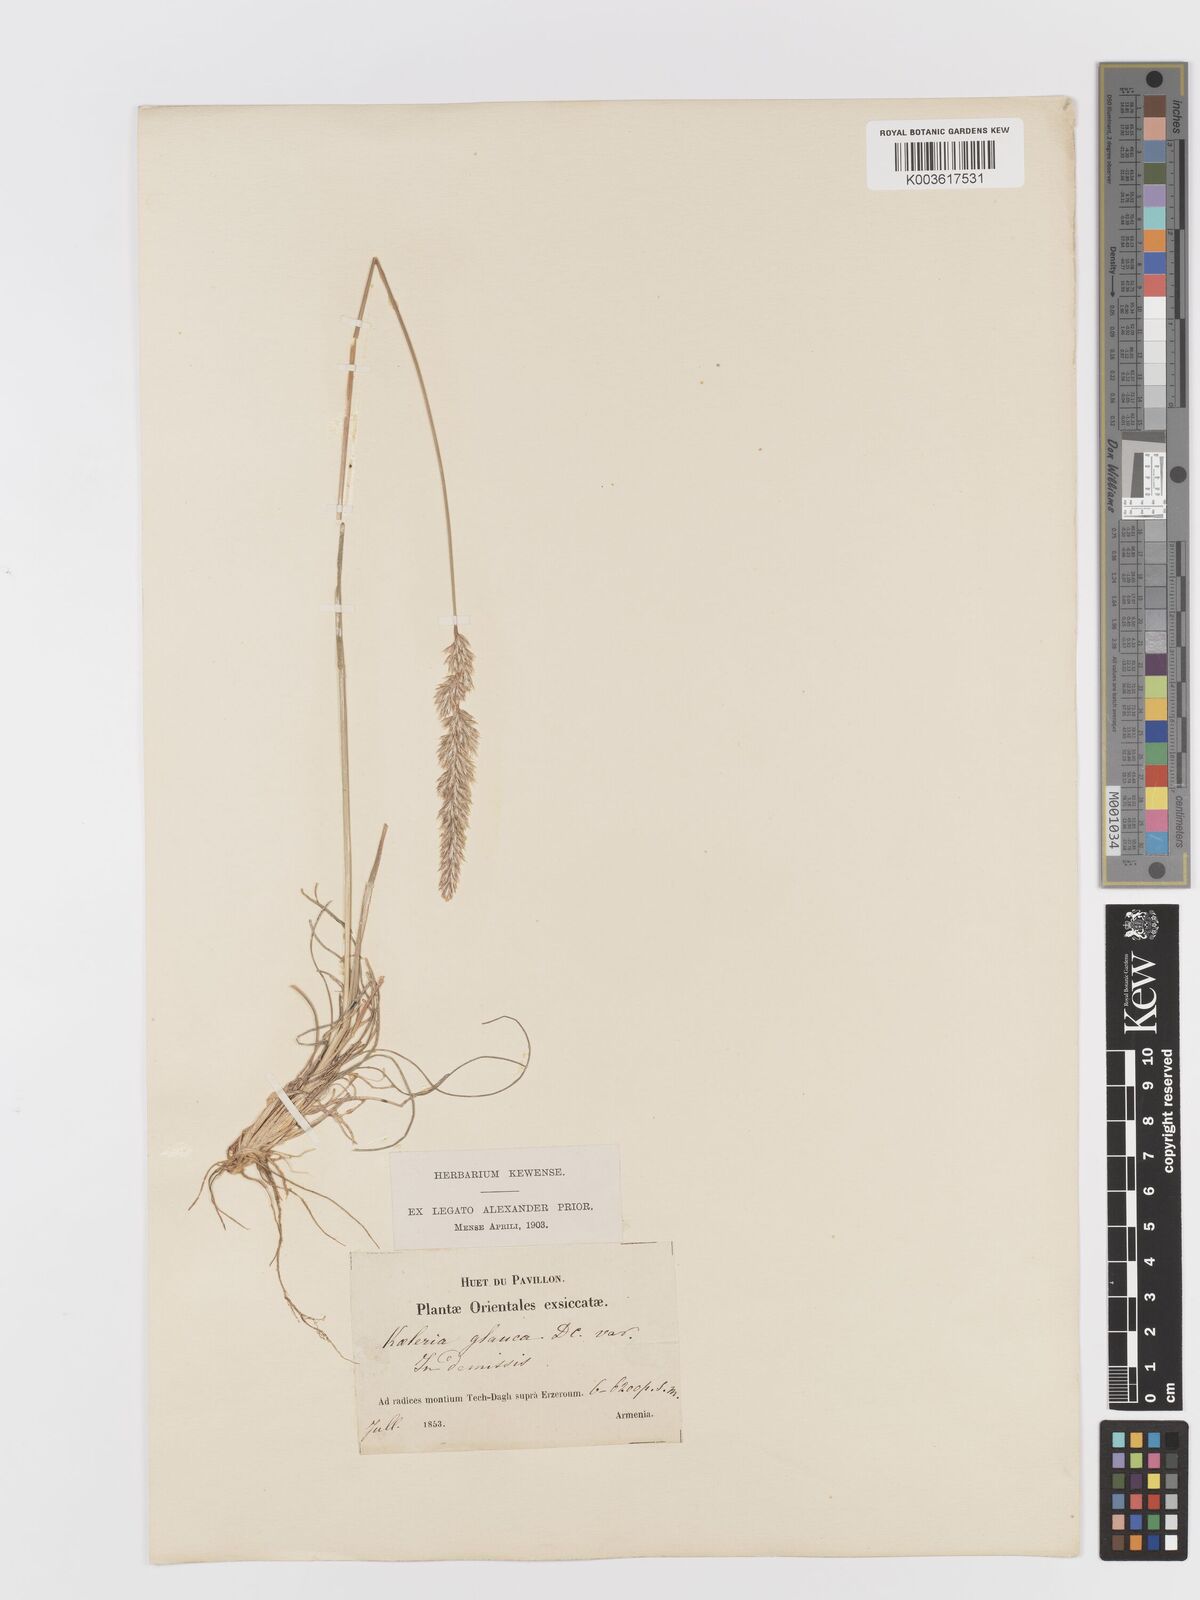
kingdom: Plantae
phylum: Tracheophyta
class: Liliopsida
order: Poales
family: Poaceae
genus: Koeleria
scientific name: Koeleria glauca
